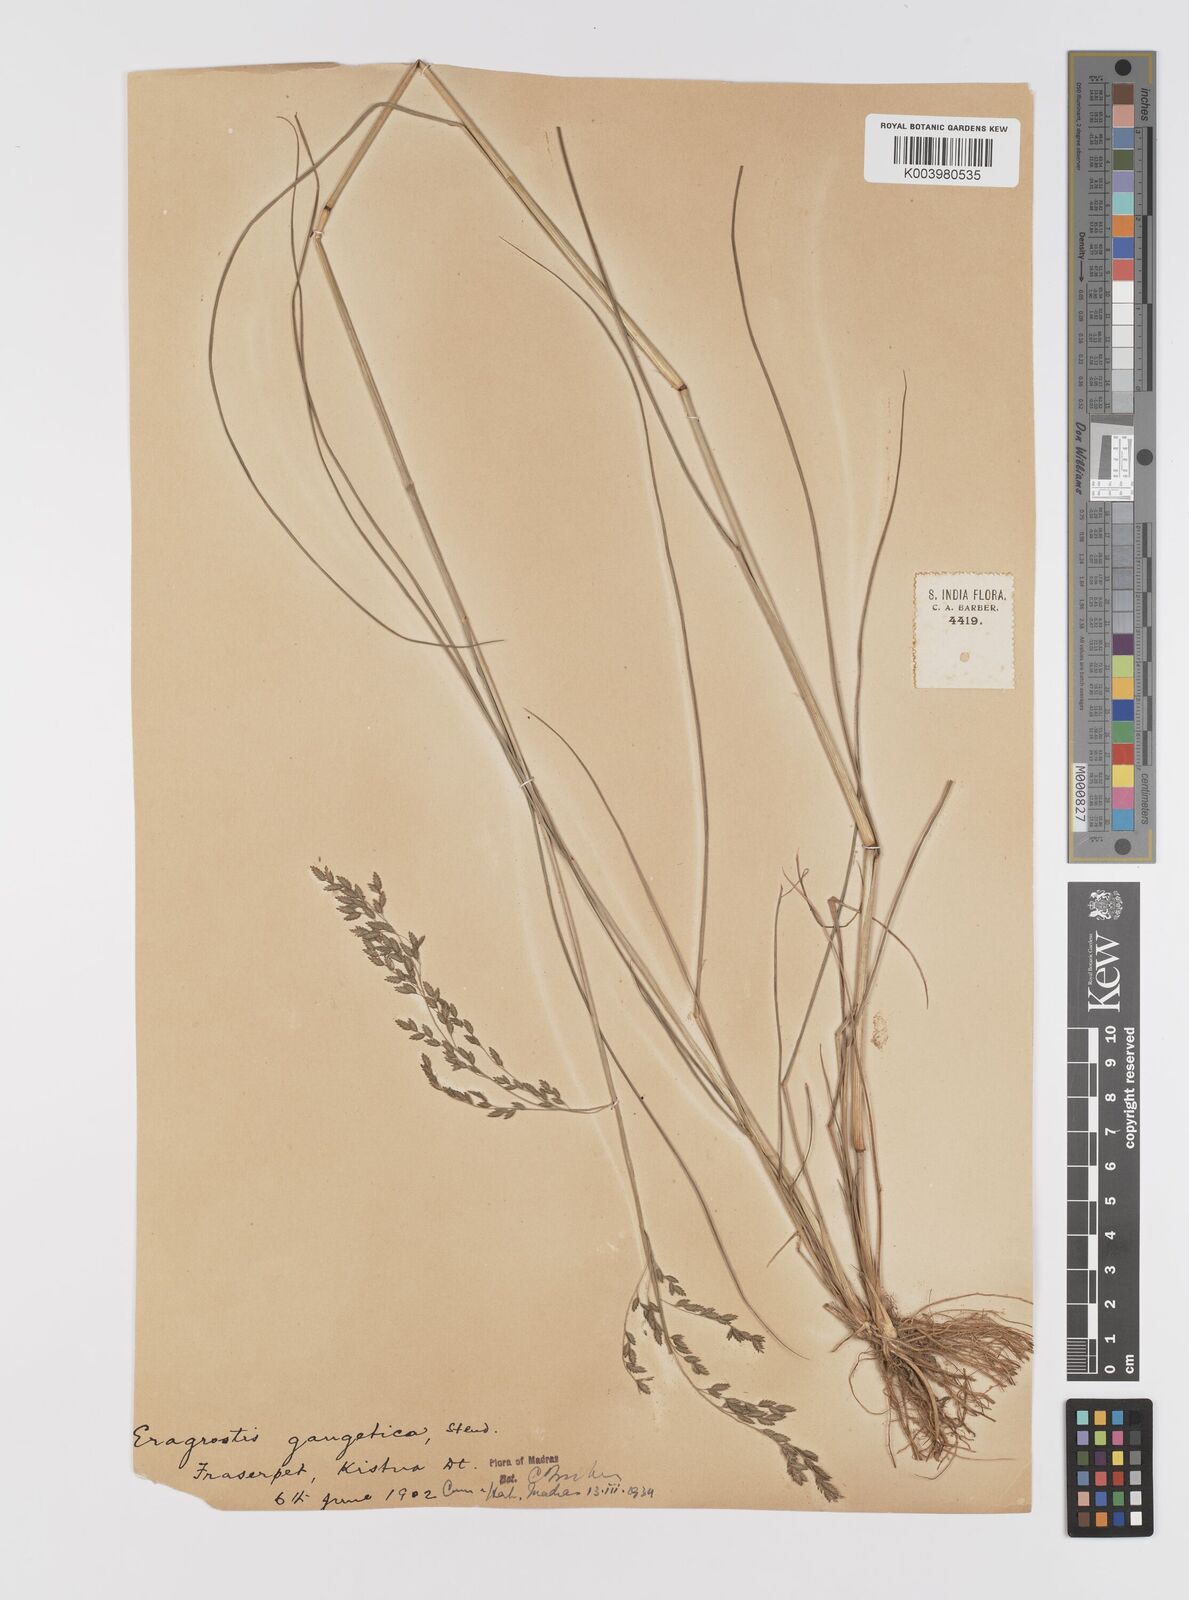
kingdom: Plantae
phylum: Tracheophyta
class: Liliopsida
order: Poales
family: Poaceae
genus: Eragrostis
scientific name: Eragrostis
